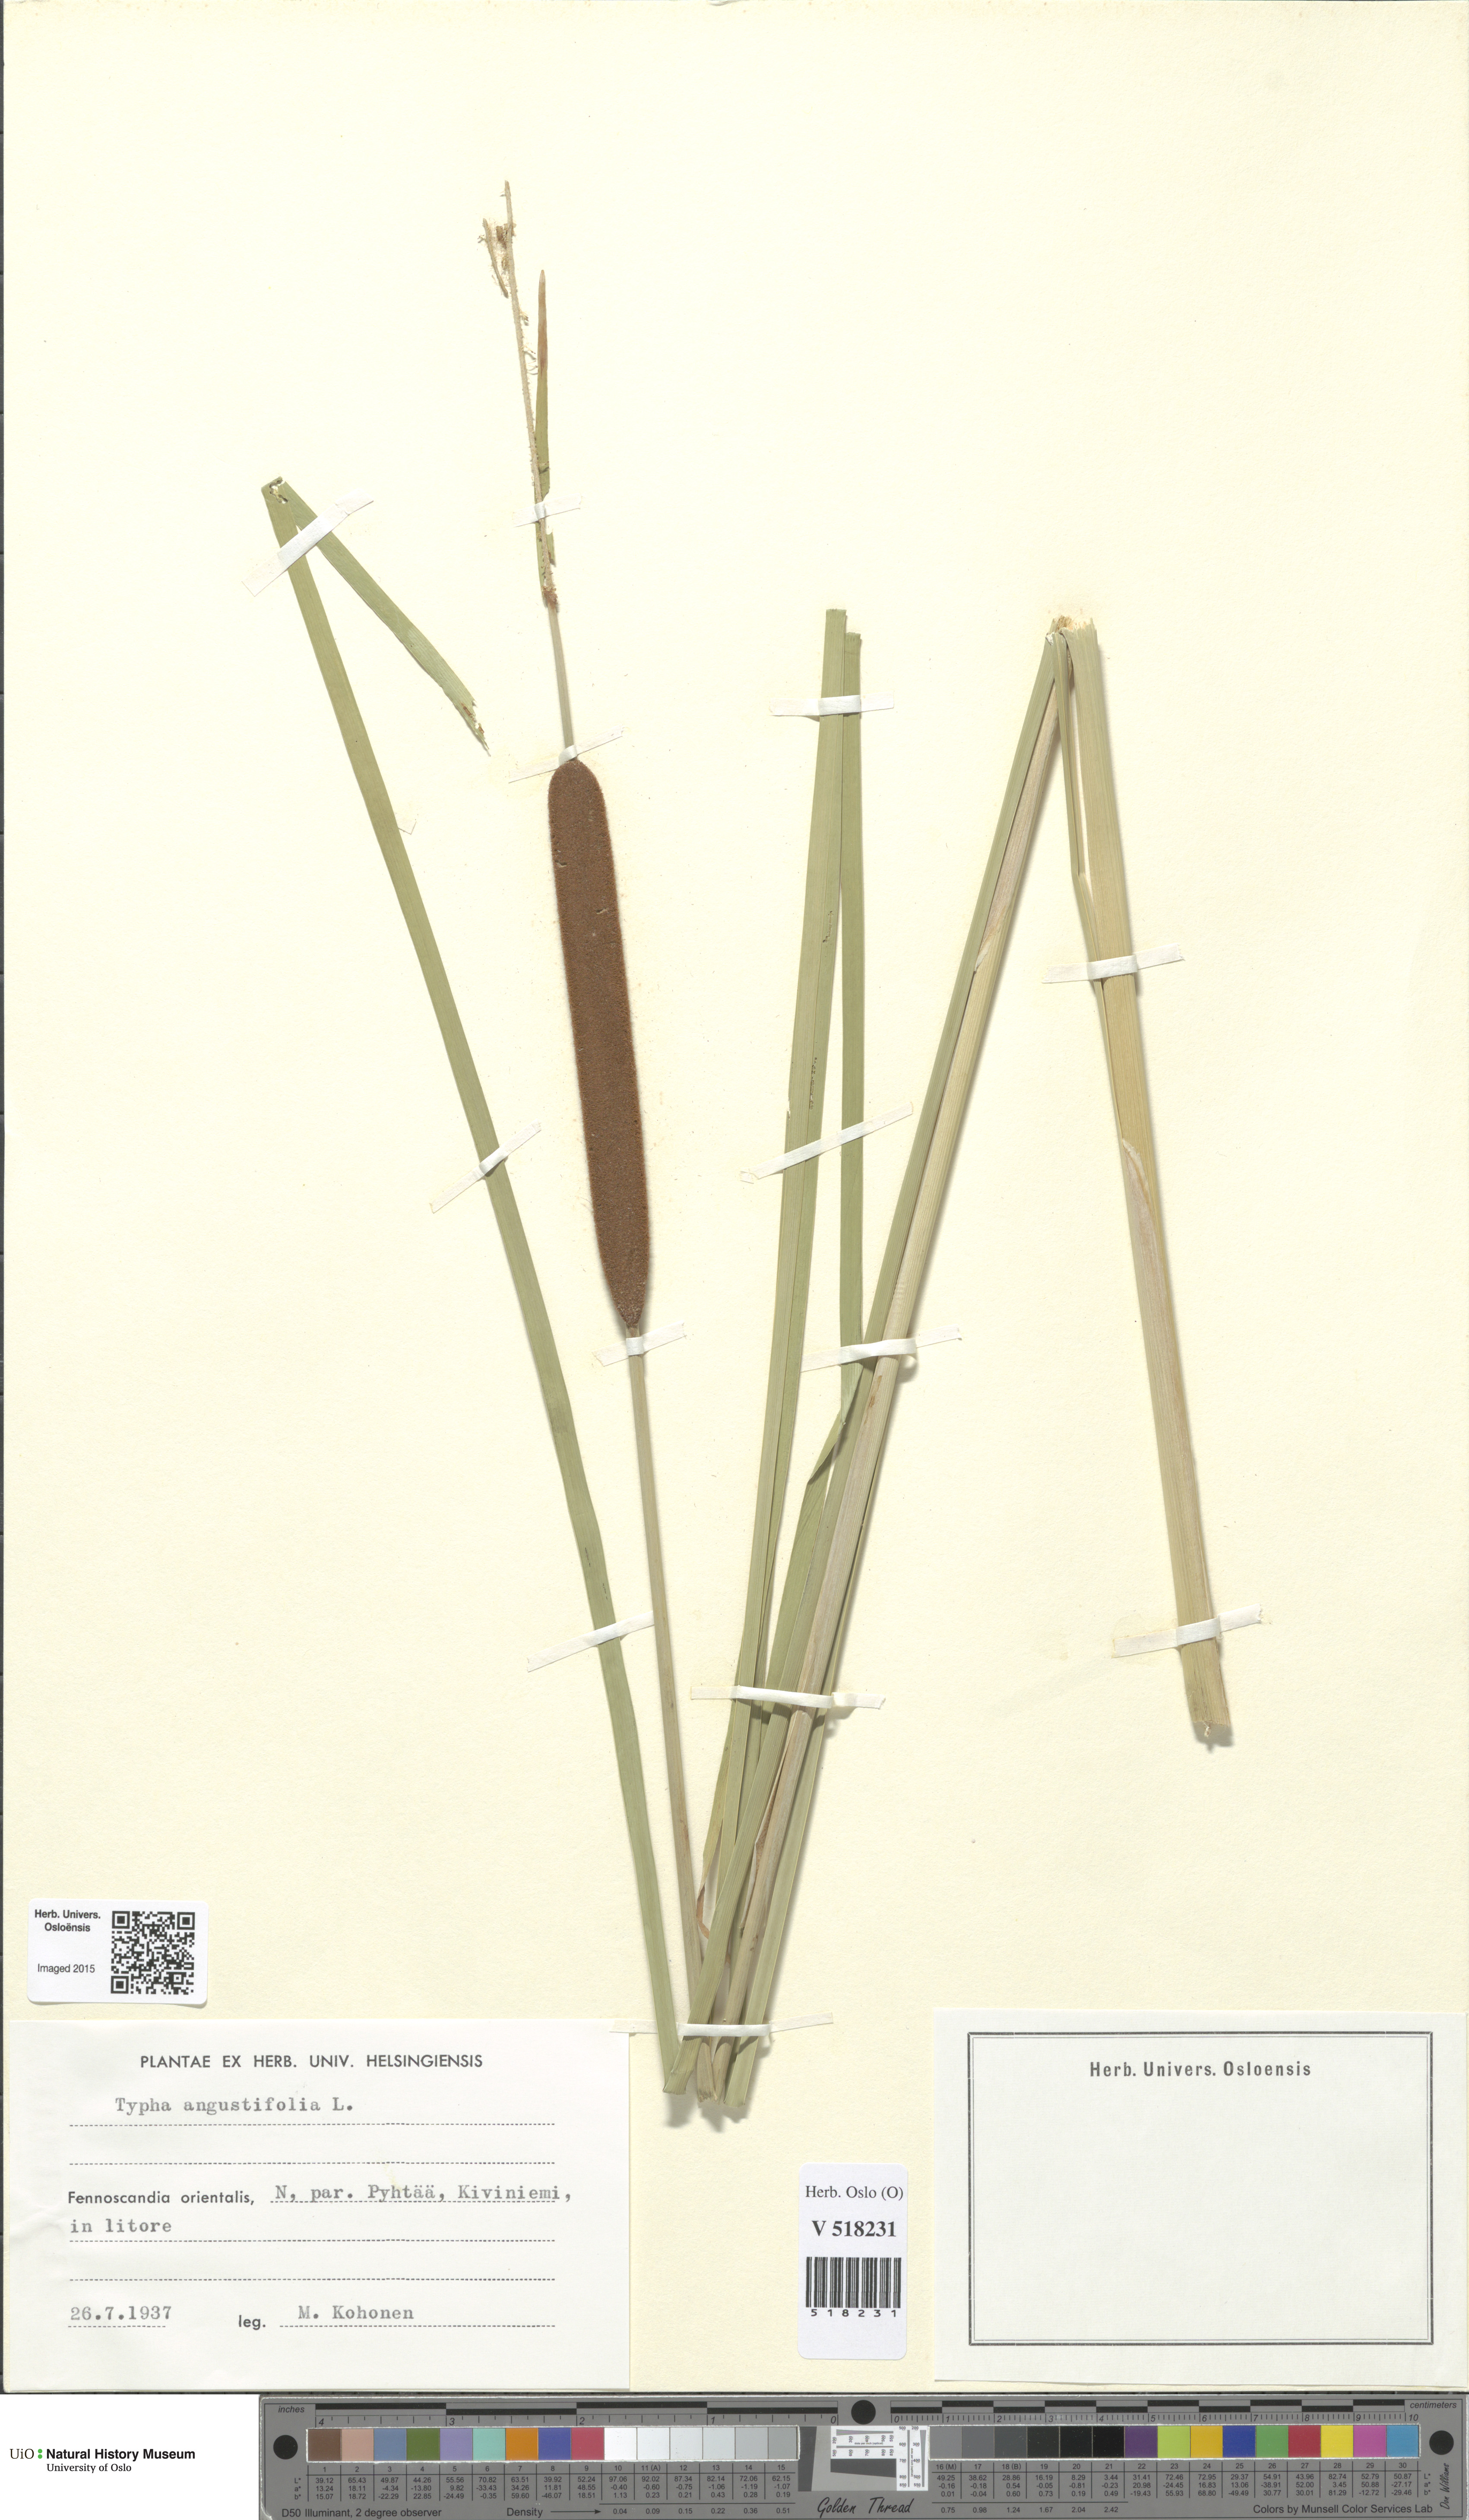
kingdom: Plantae
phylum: Tracheophyta
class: Liliopsida
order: Poales
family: Typhaceae
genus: Typha
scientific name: Typha angustifolia
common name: Lesser bulrush
